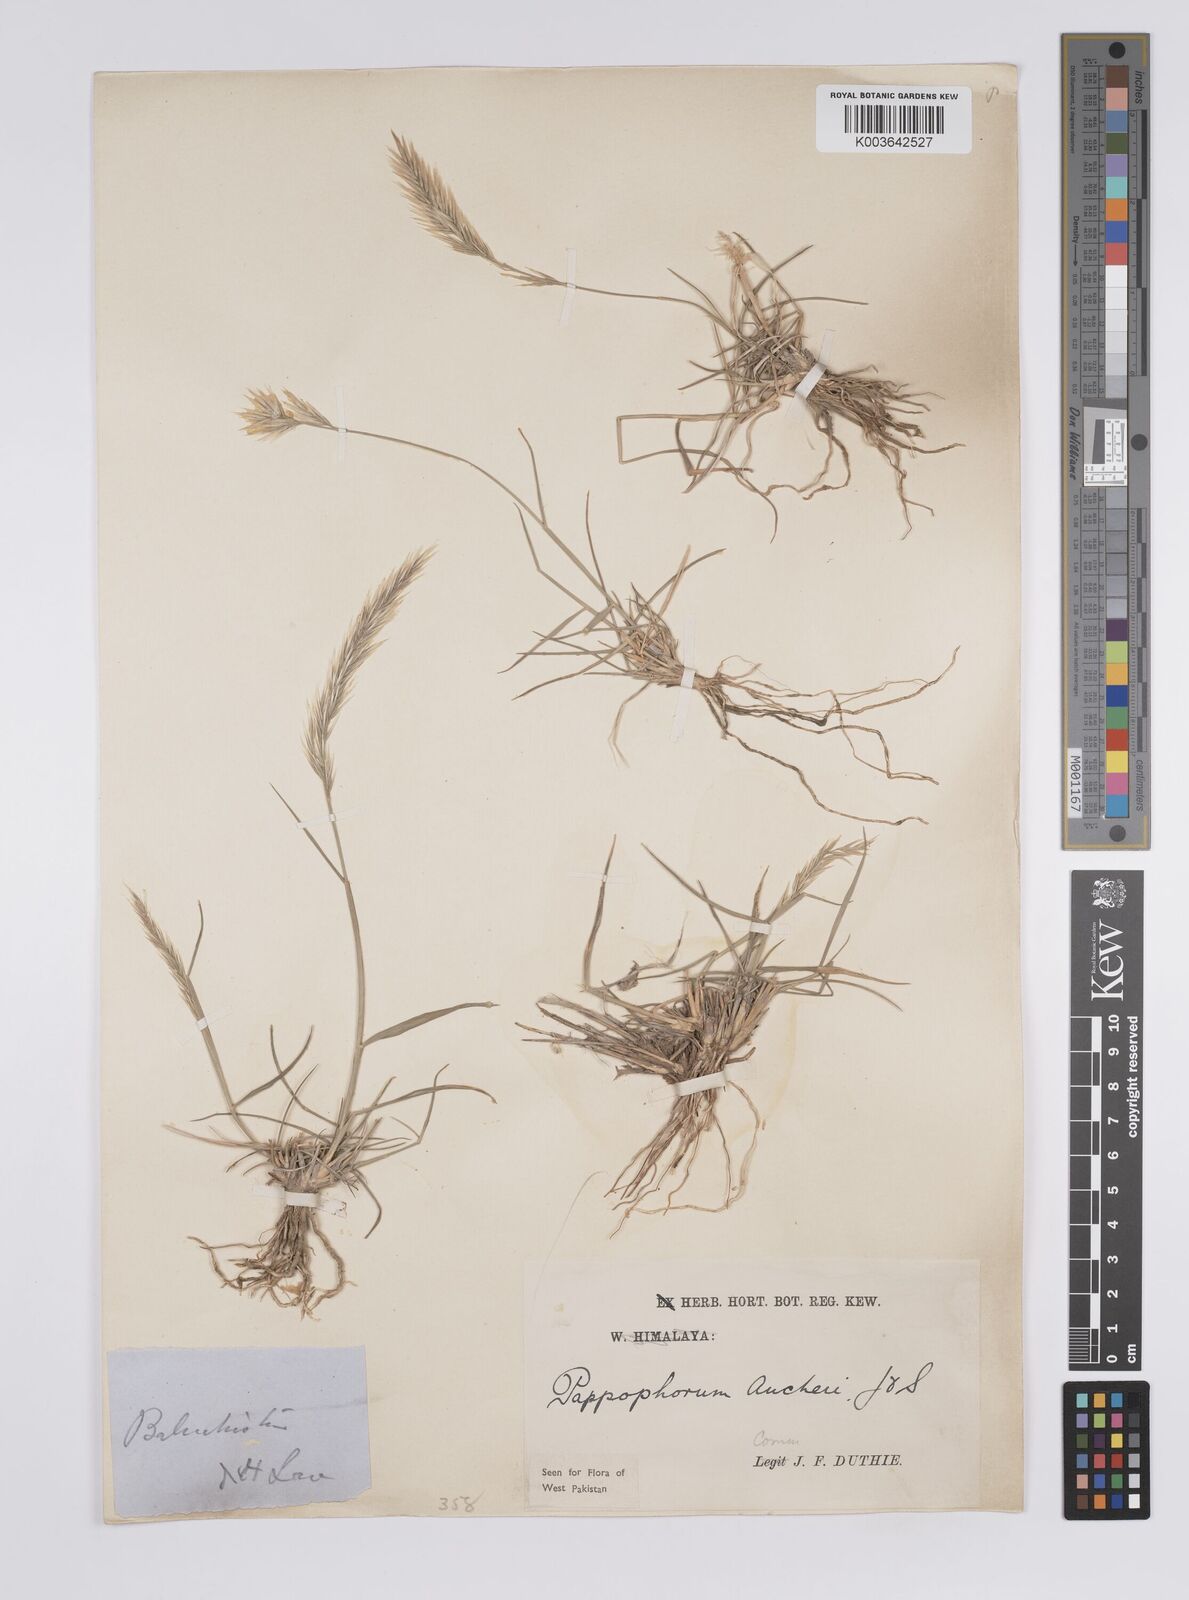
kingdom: Plantae
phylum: Tracheophyta
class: Liliopsida
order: Poales
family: Poaceae
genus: Enneapogon
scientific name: Enneapogon persicus
